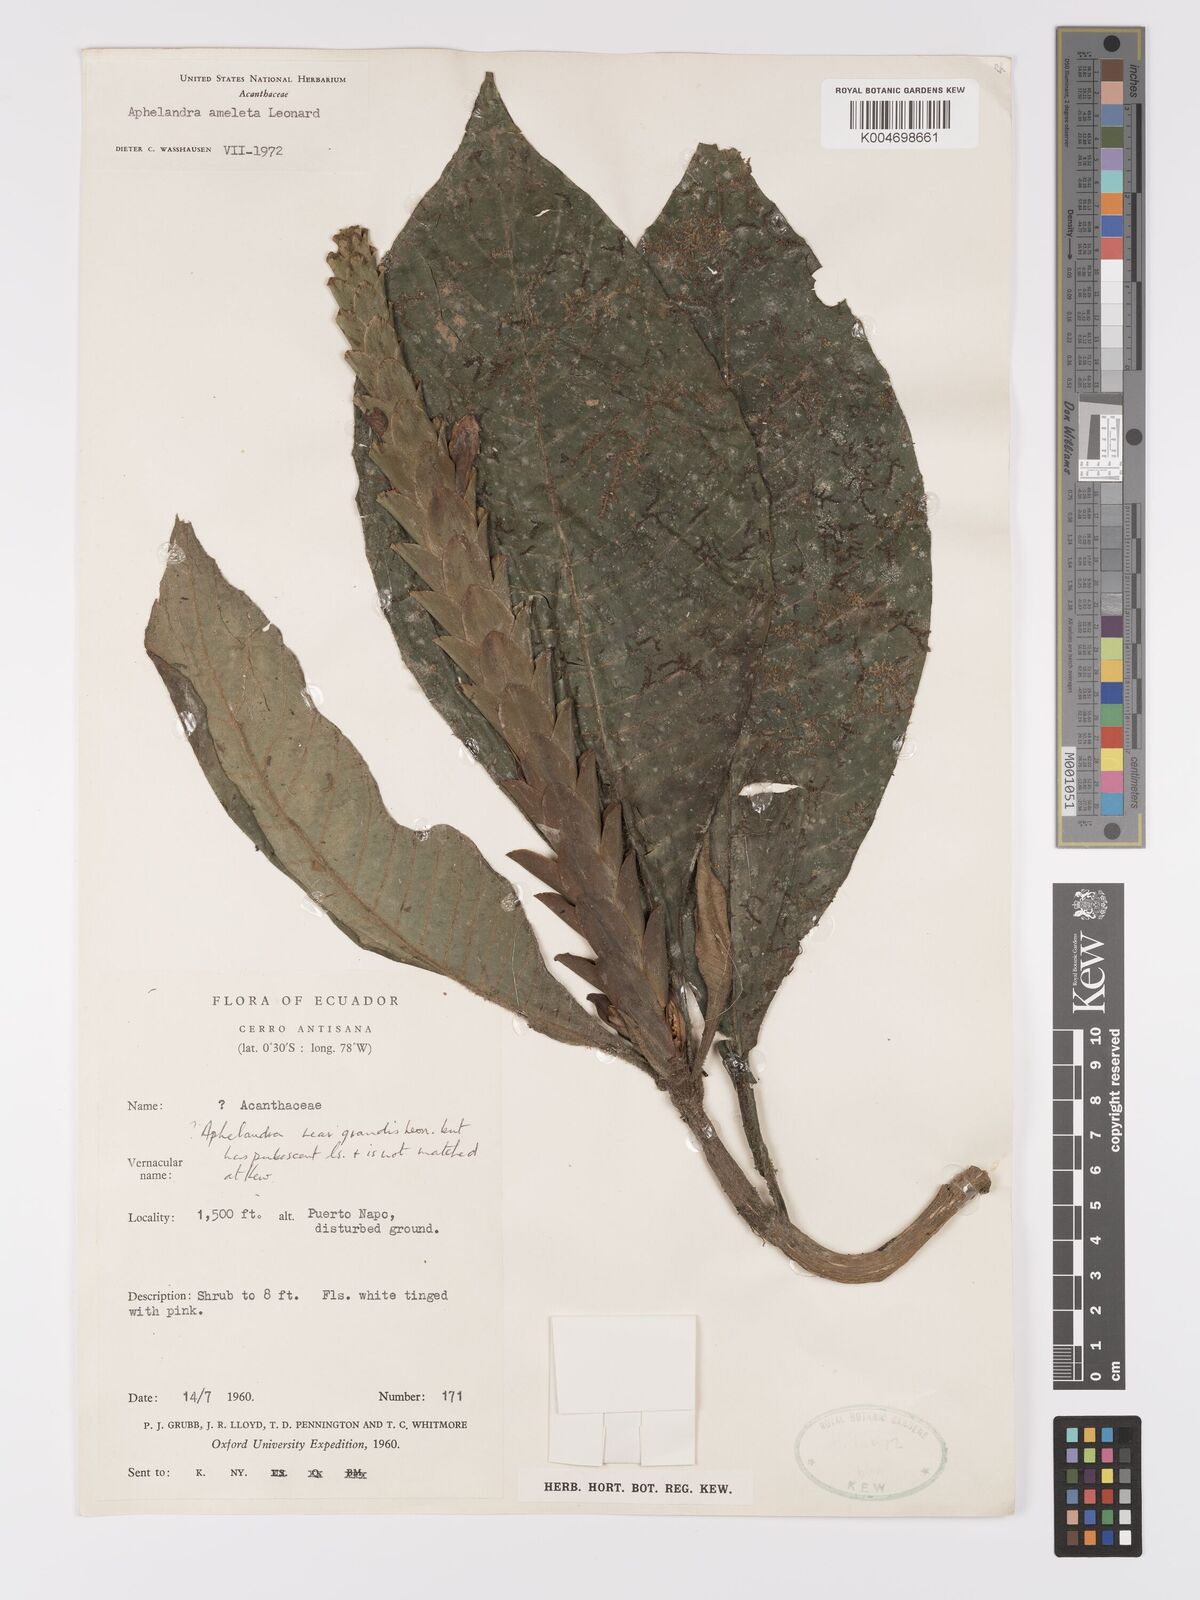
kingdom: Plantae
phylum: Tracheophyta
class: Magnoliopsida
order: Lamiales
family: Acanthaceae
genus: Aphelandra
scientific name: Aphelandra ameleta
